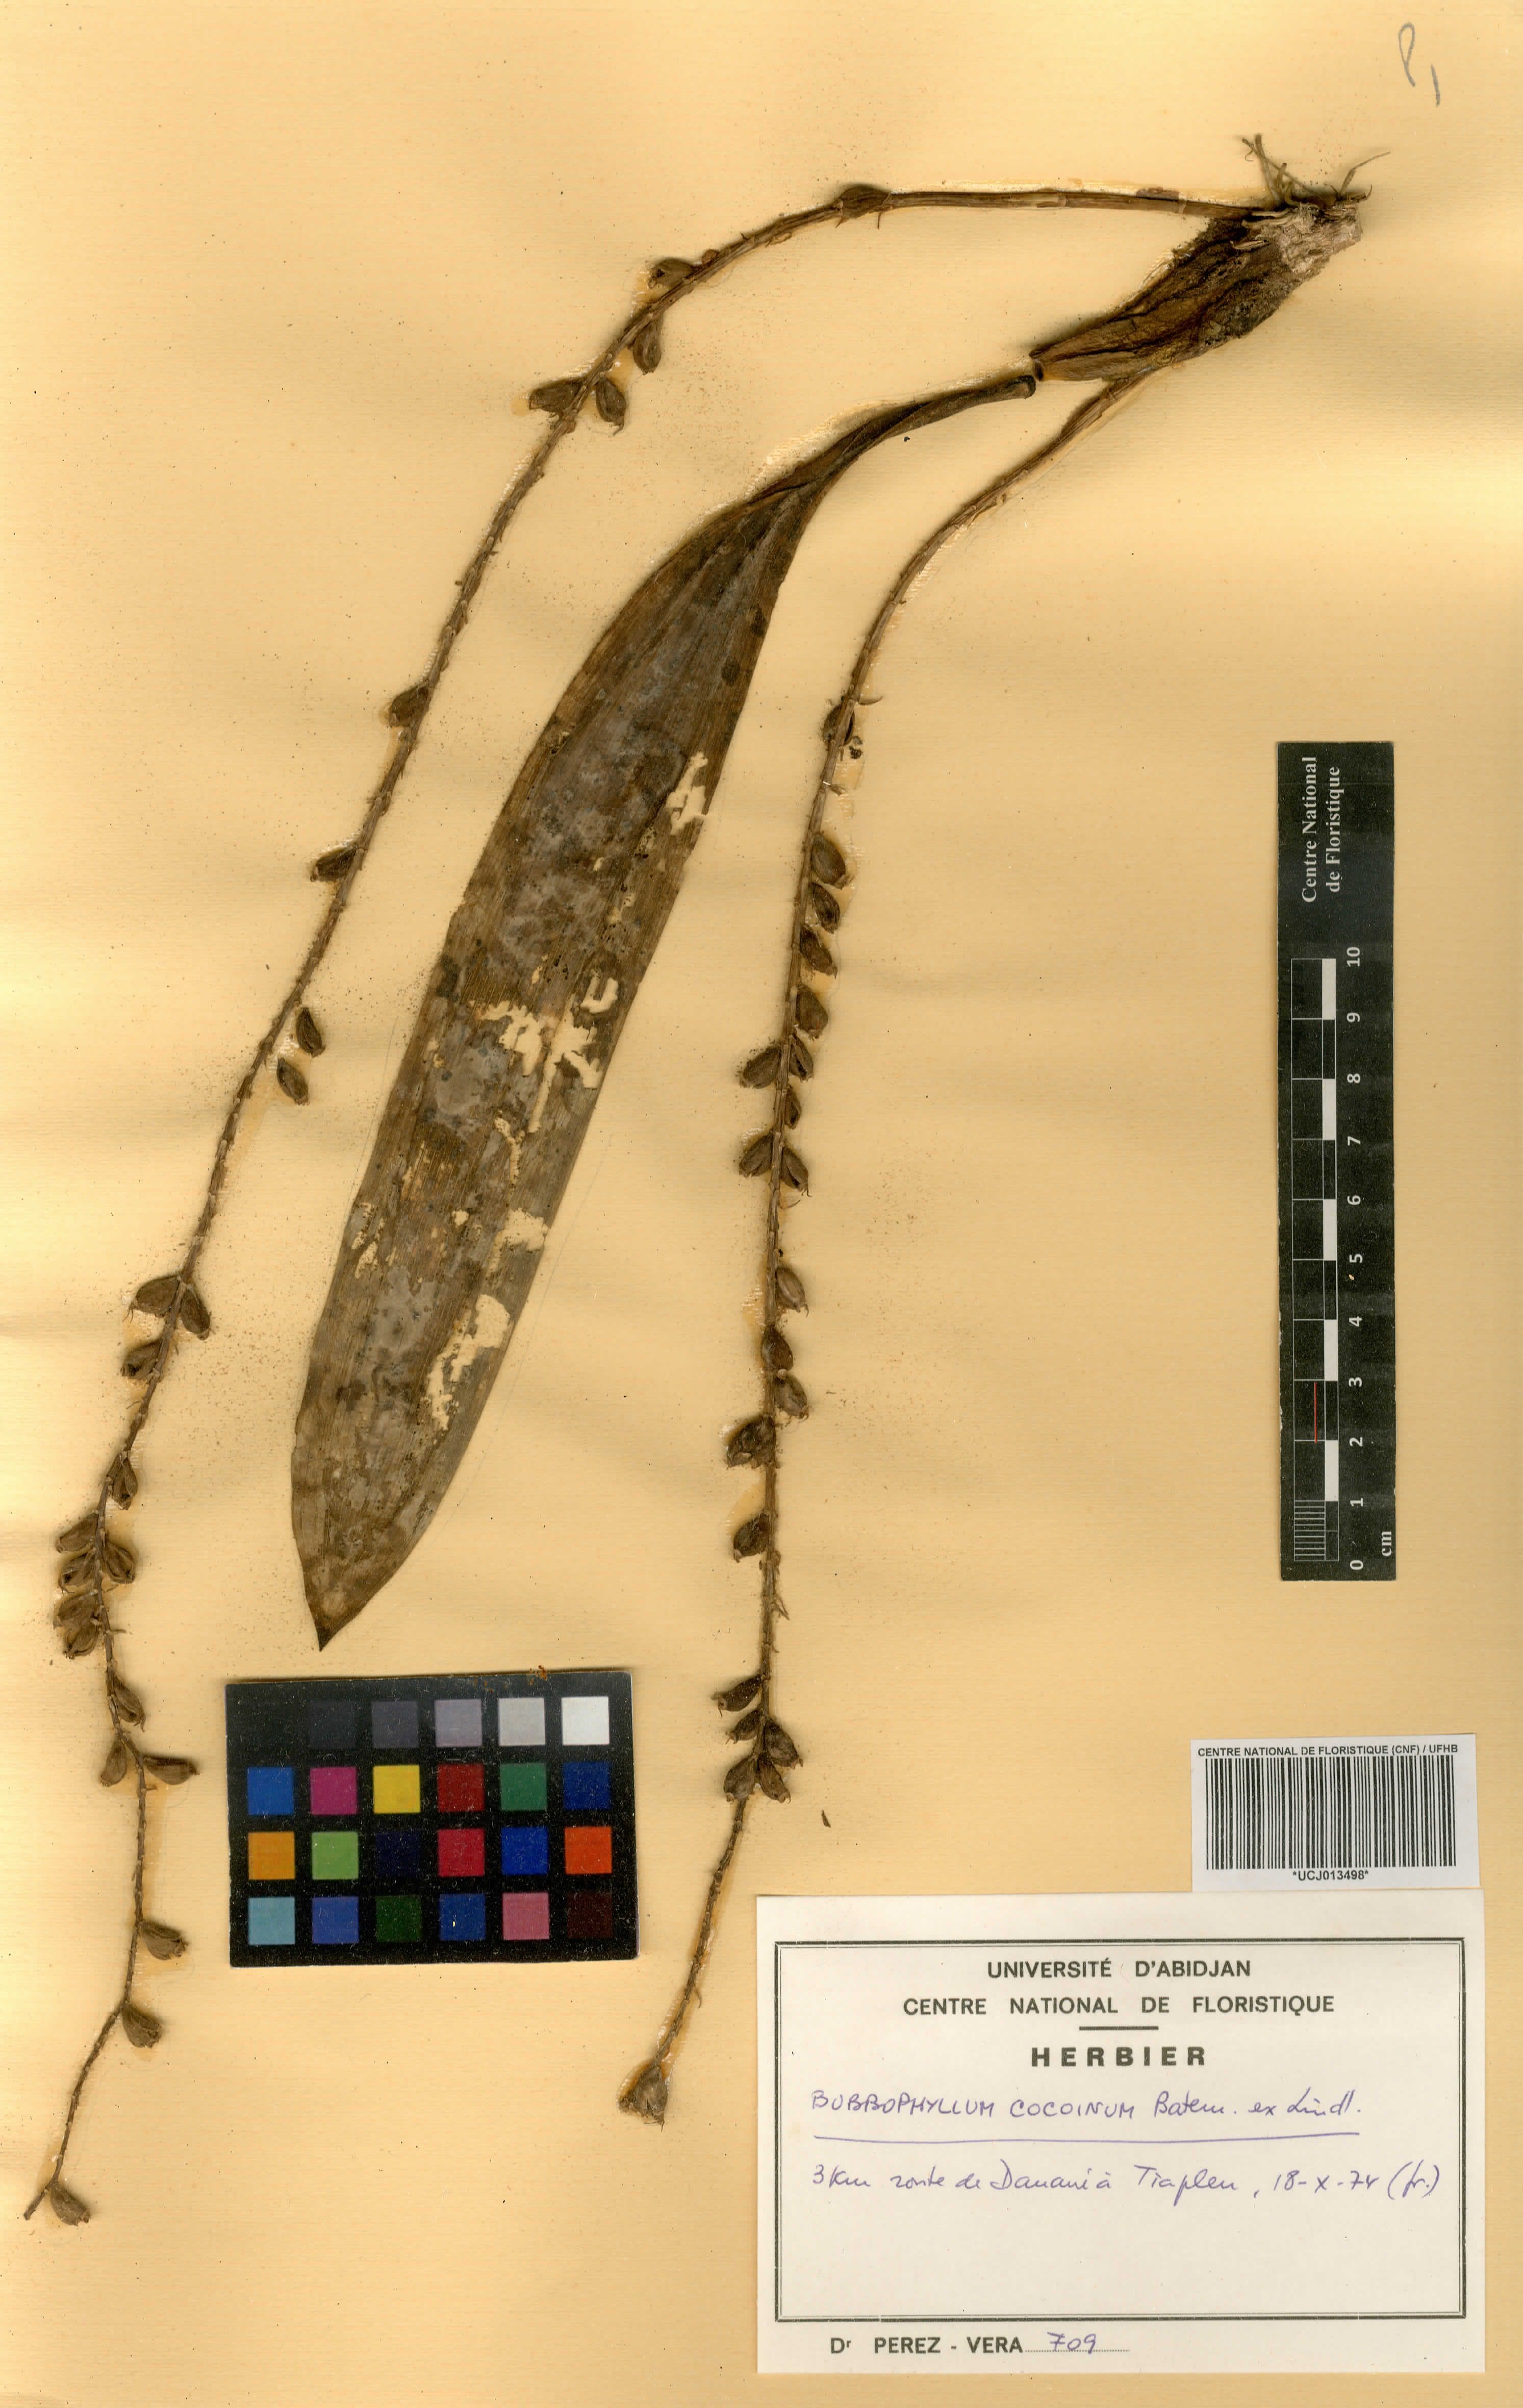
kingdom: Plantae
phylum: Tracheophyta
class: Liliopsida
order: Asparagales
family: Orchidaceae
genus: Bulbophyllum
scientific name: Bulbophyllum cocoinum
